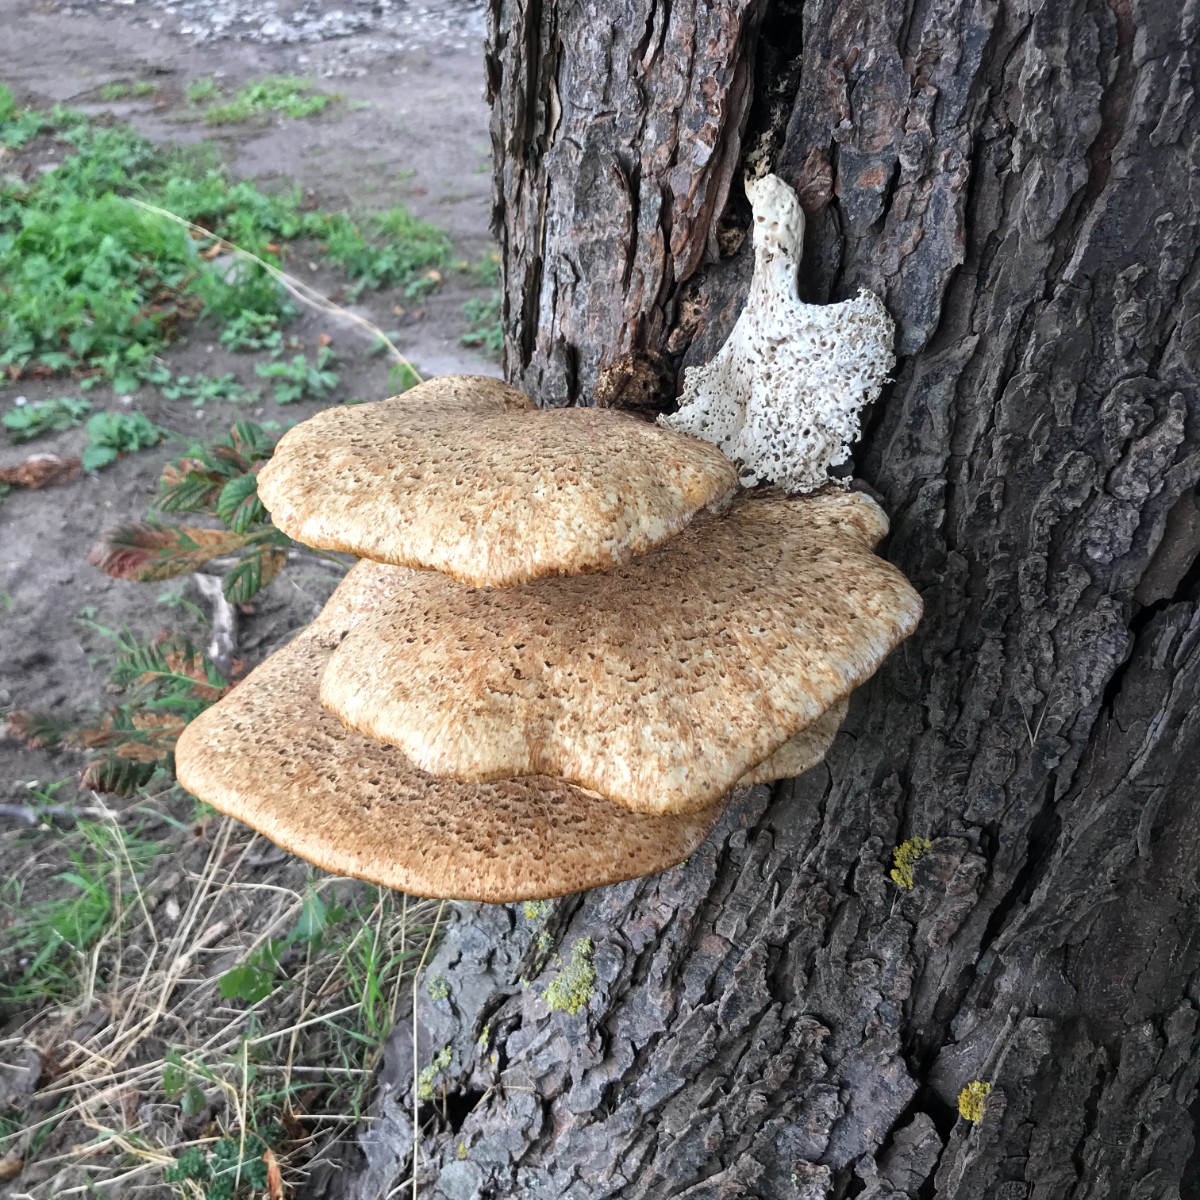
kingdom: Fungi
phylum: Basidiomycota
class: Agaricomycetes
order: Polyporales
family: Polyporaceae
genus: Cerioporus
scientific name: Cerioporus squamosus
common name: skællet stilkporesvamp
